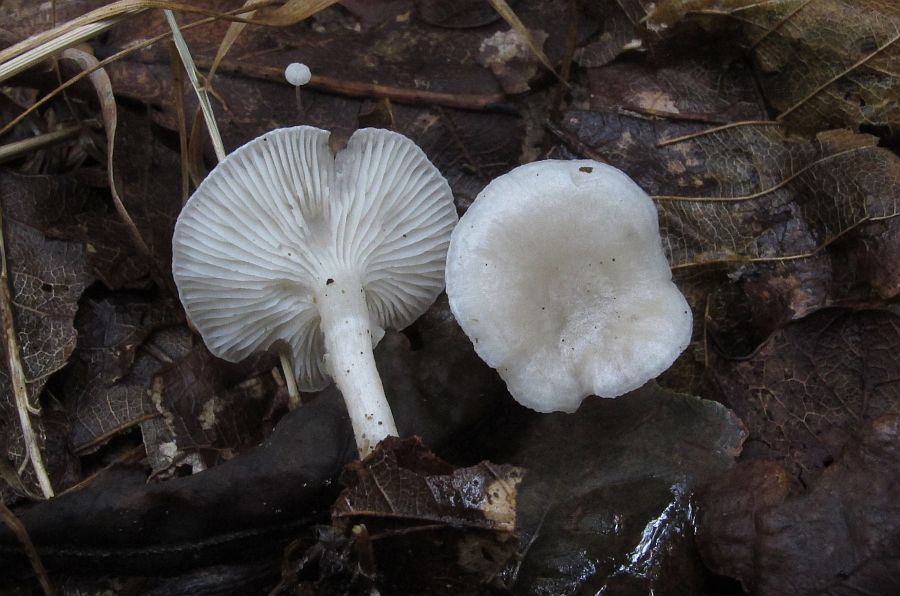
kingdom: Fungi
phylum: Basidiomycota
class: Agaricomycetes
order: Agaricales
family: Tricholomataceae
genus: Leucocybe
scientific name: Leucocybe candicans
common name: kridt-tragthat
